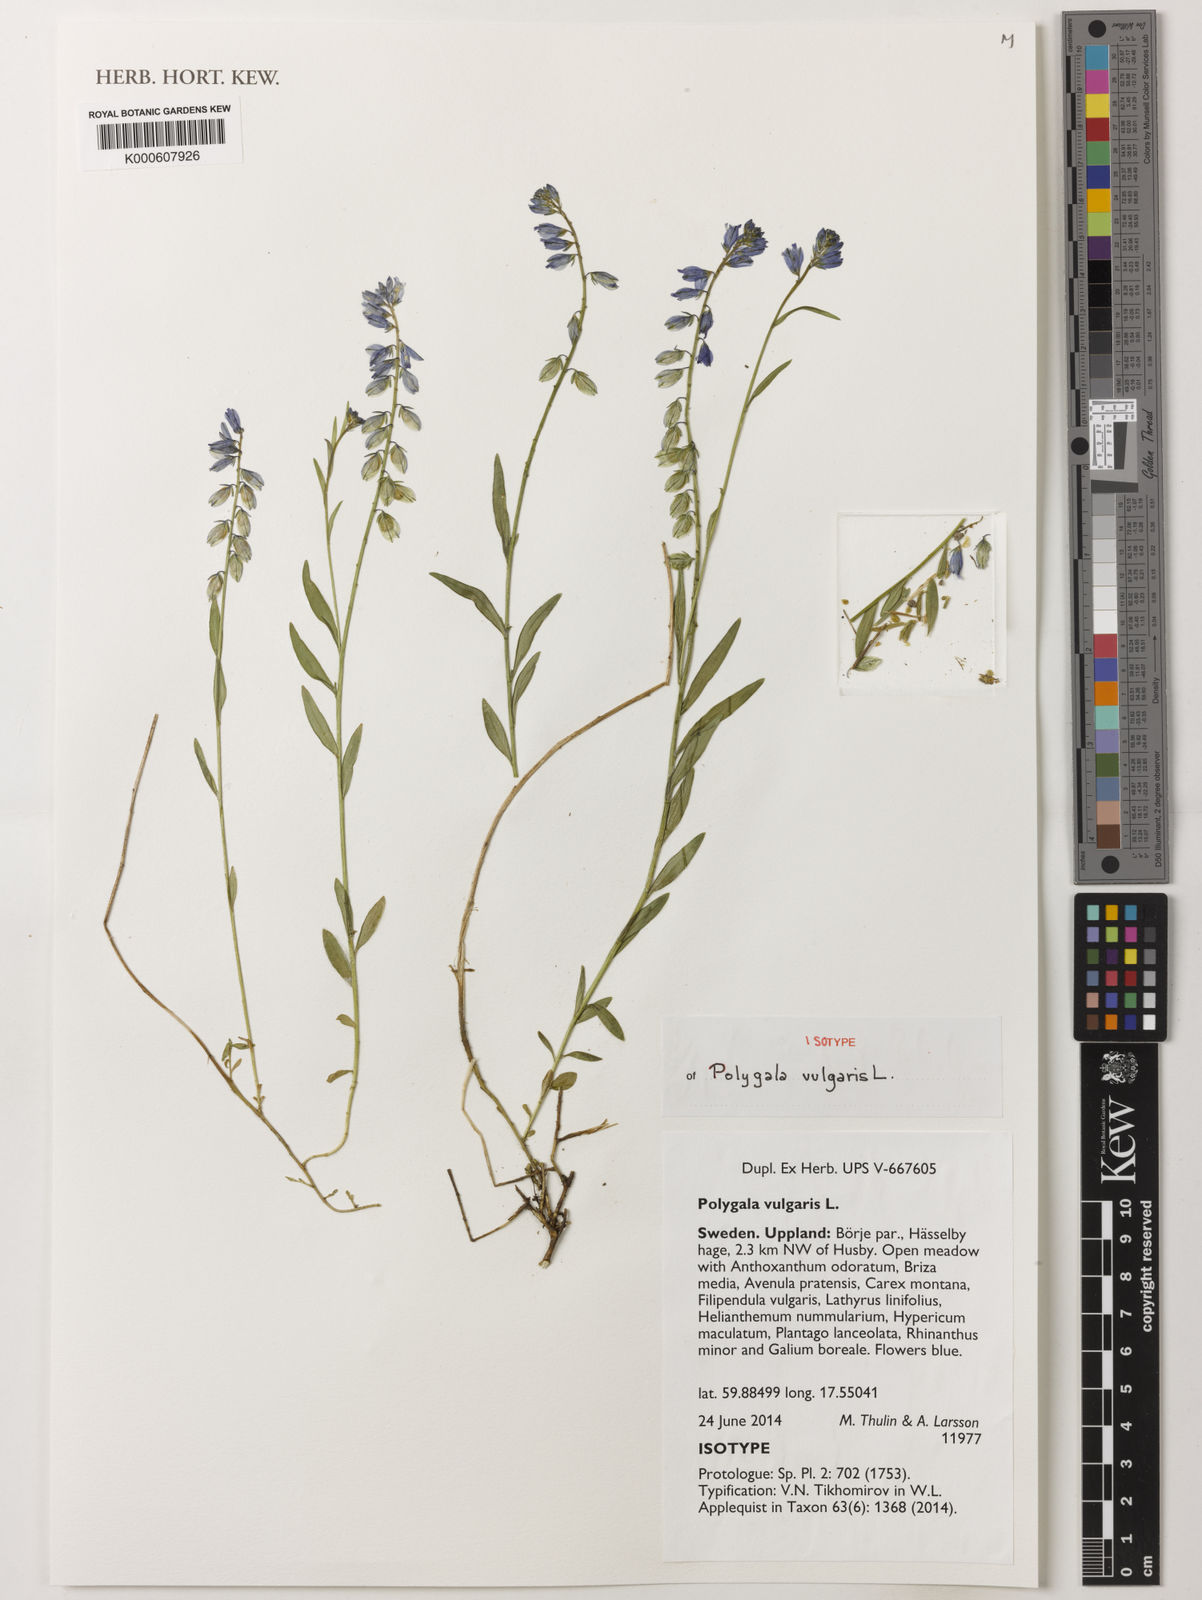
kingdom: Plantae
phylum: Tracheophyta
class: Magnoliopsida
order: Fabales
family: Polygalaceae
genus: Polygala
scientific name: Polygala vulgaris
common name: Common milkwort
